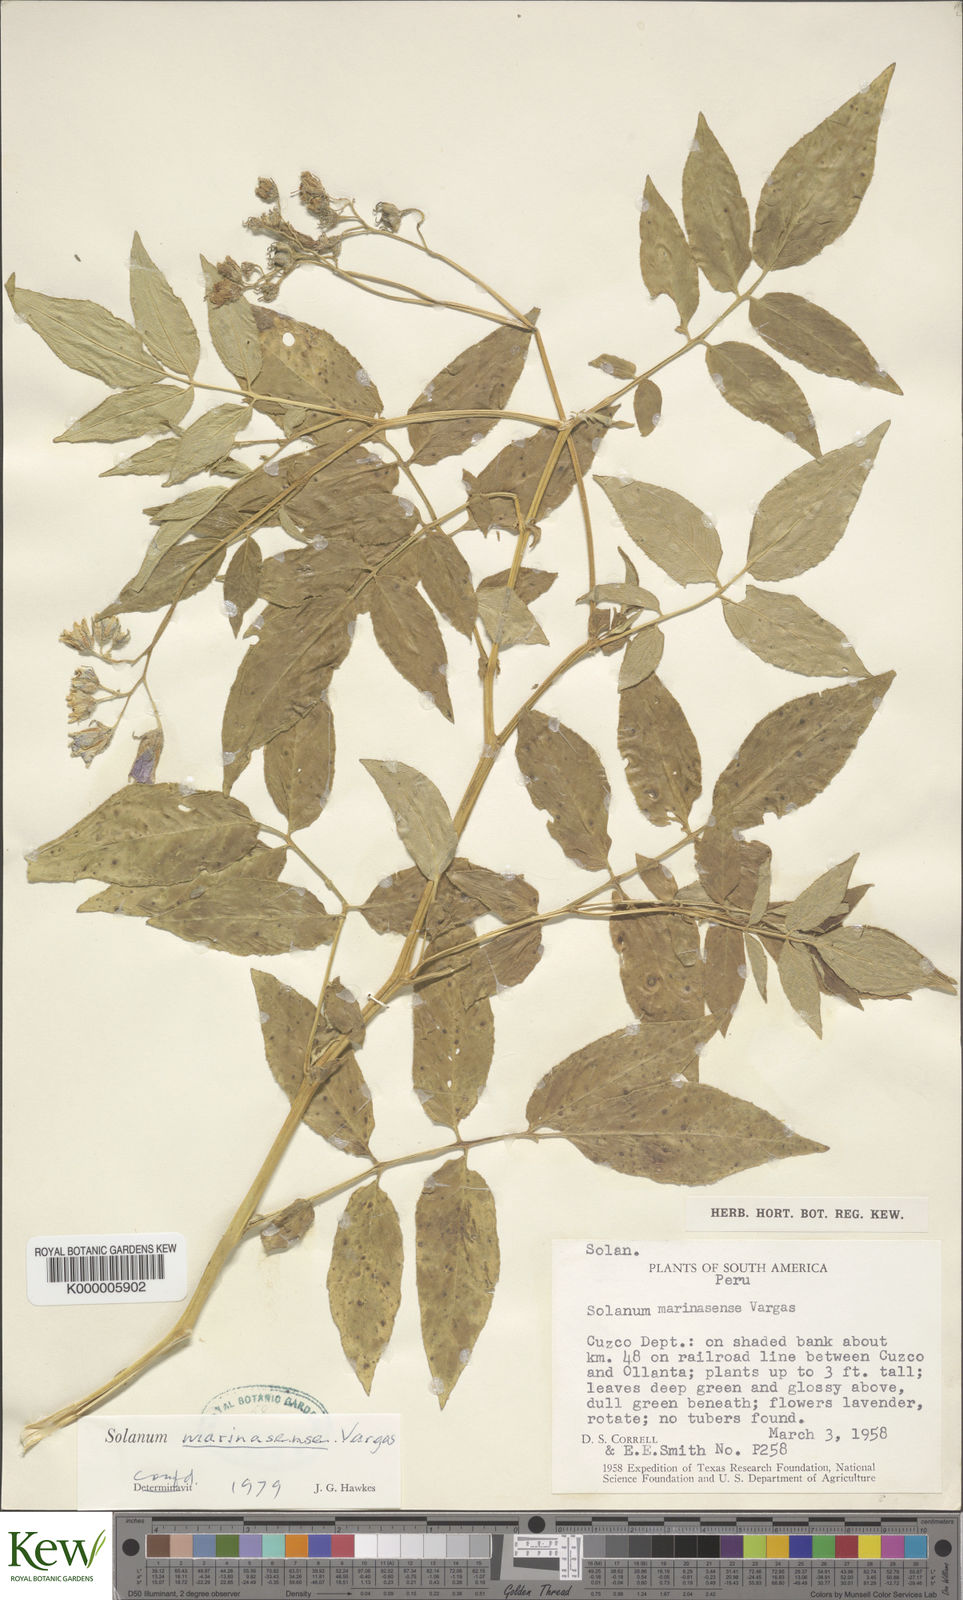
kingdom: Plantae
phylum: Tracheophyta
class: Magnoliopsida
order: Solanales
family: Solanaceae
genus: Solanum
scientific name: Solanum candolleanum
